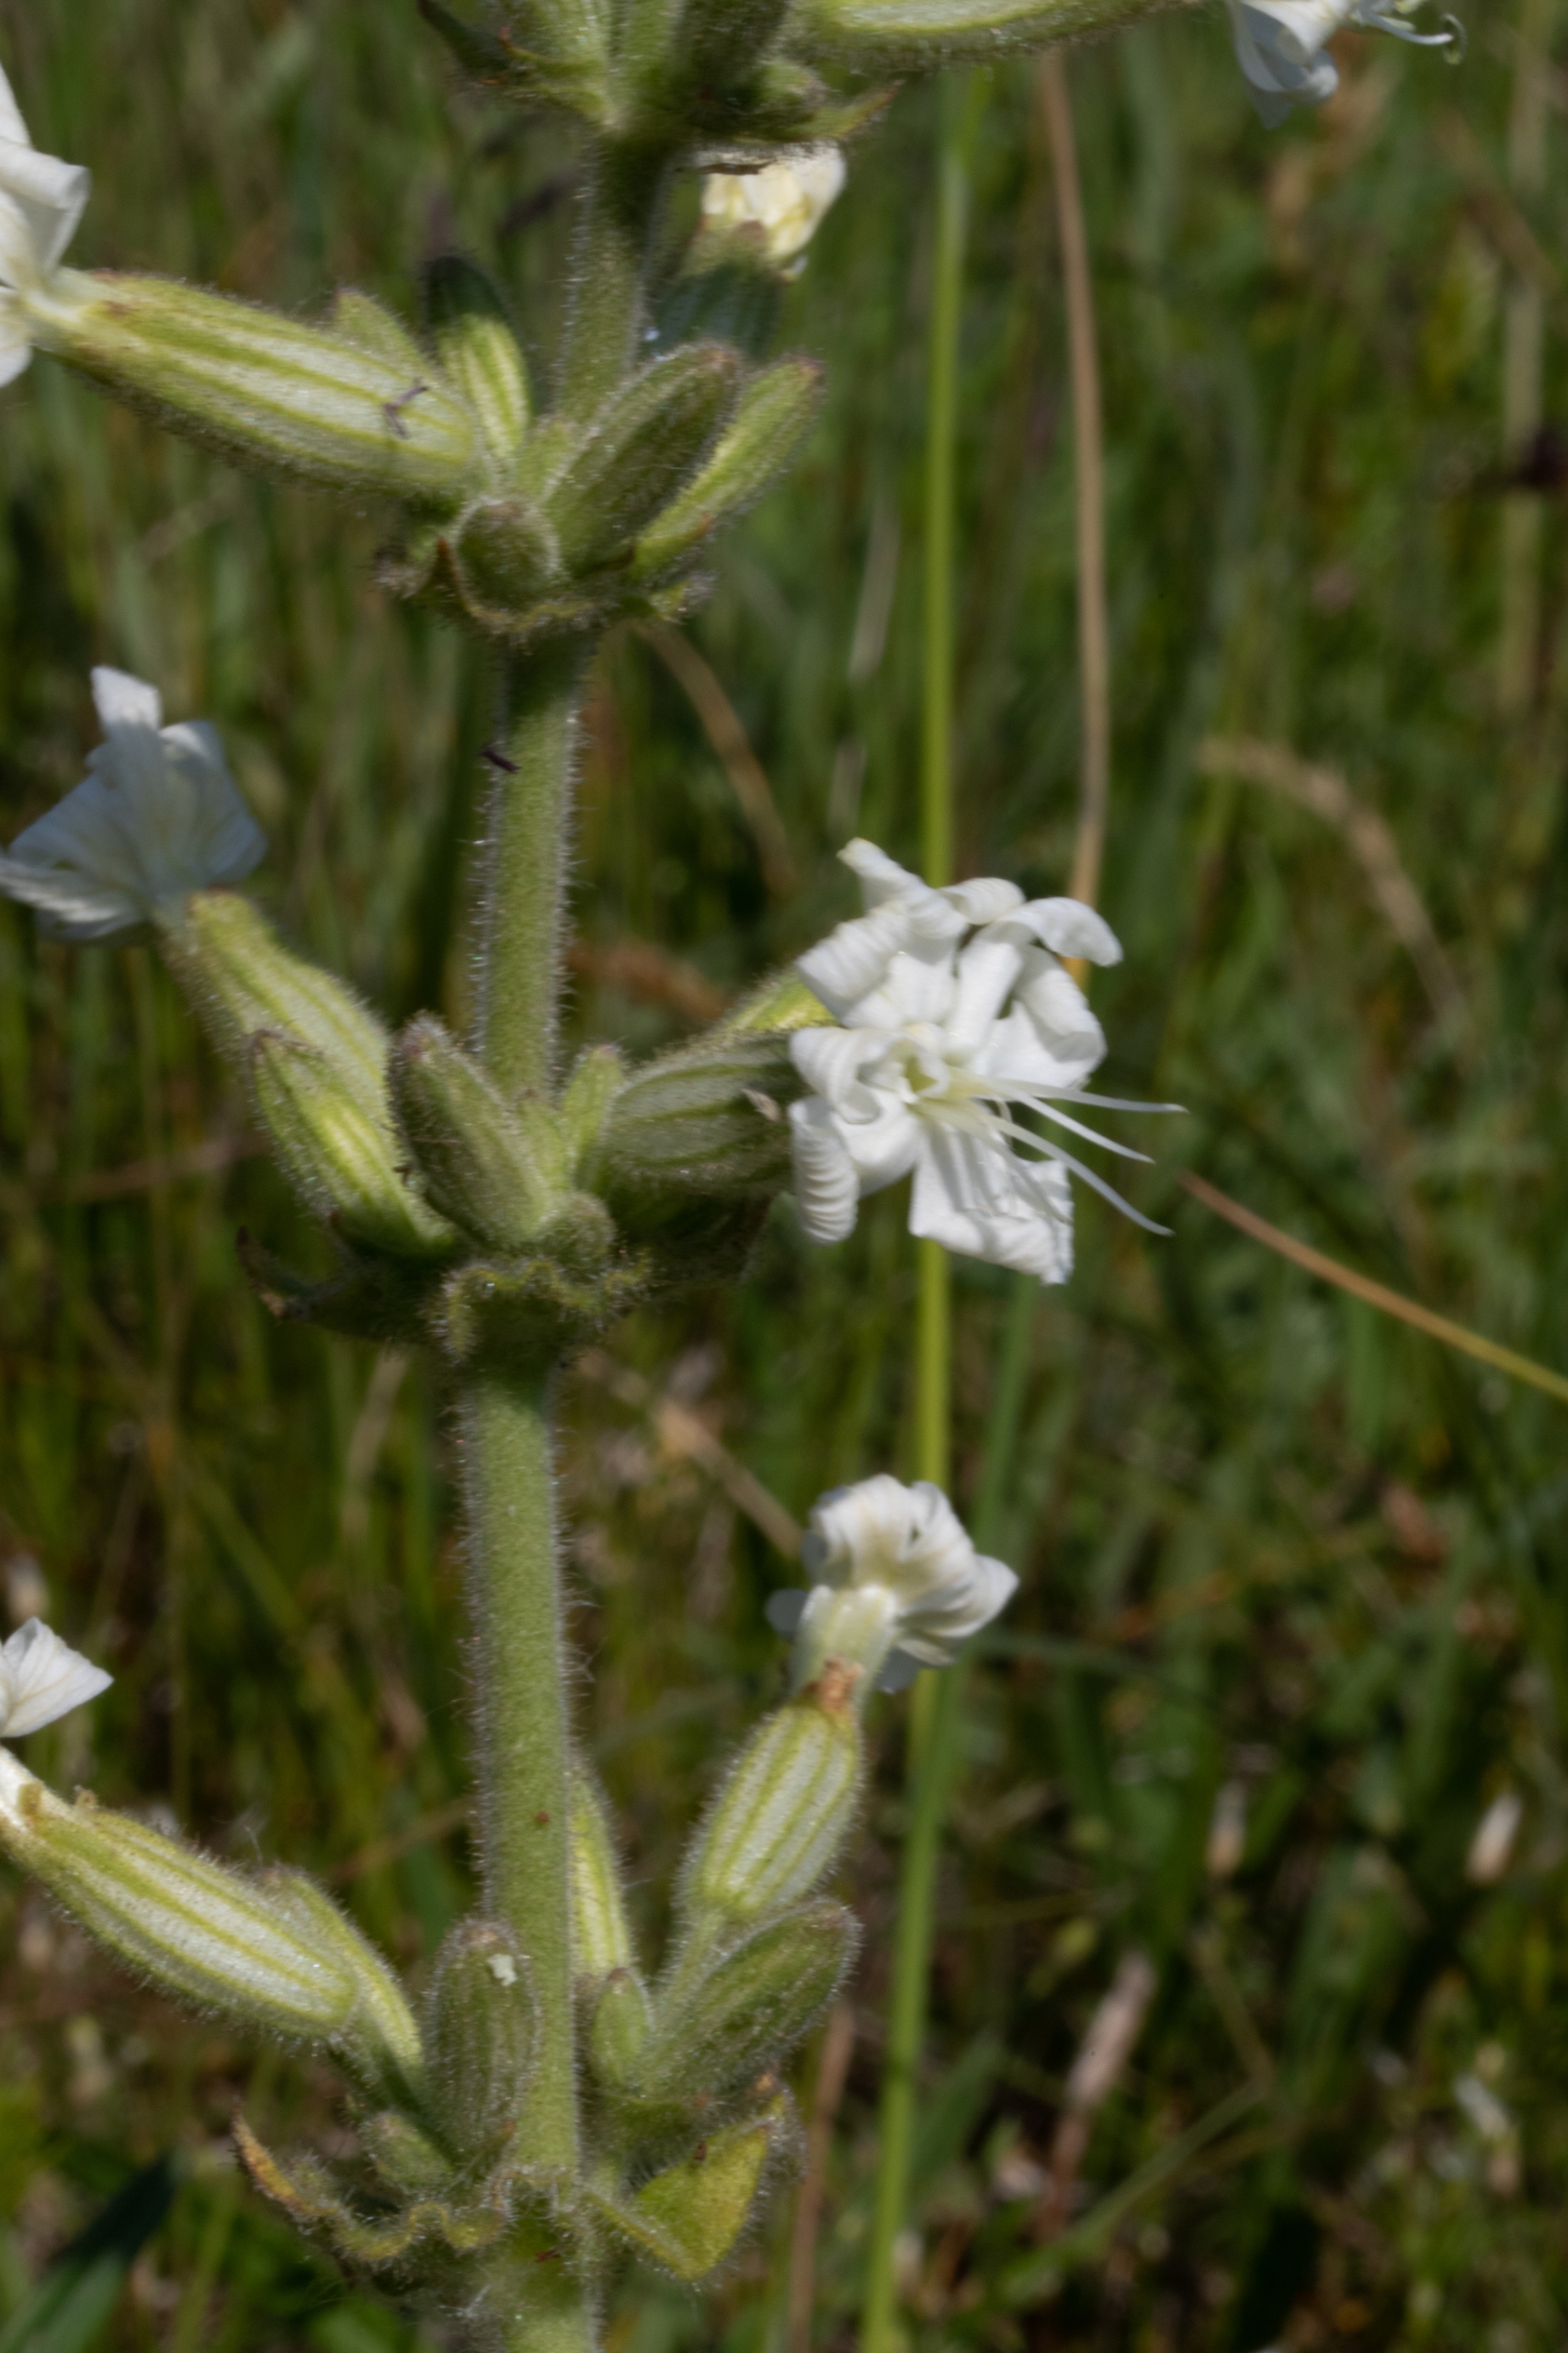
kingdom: Plantae
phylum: Tracheophyta
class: Magnoliopsida
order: Caryophyllales
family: Caryophyllaceae
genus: Silene
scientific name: Silene viscosa
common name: Klæbrig limurt
